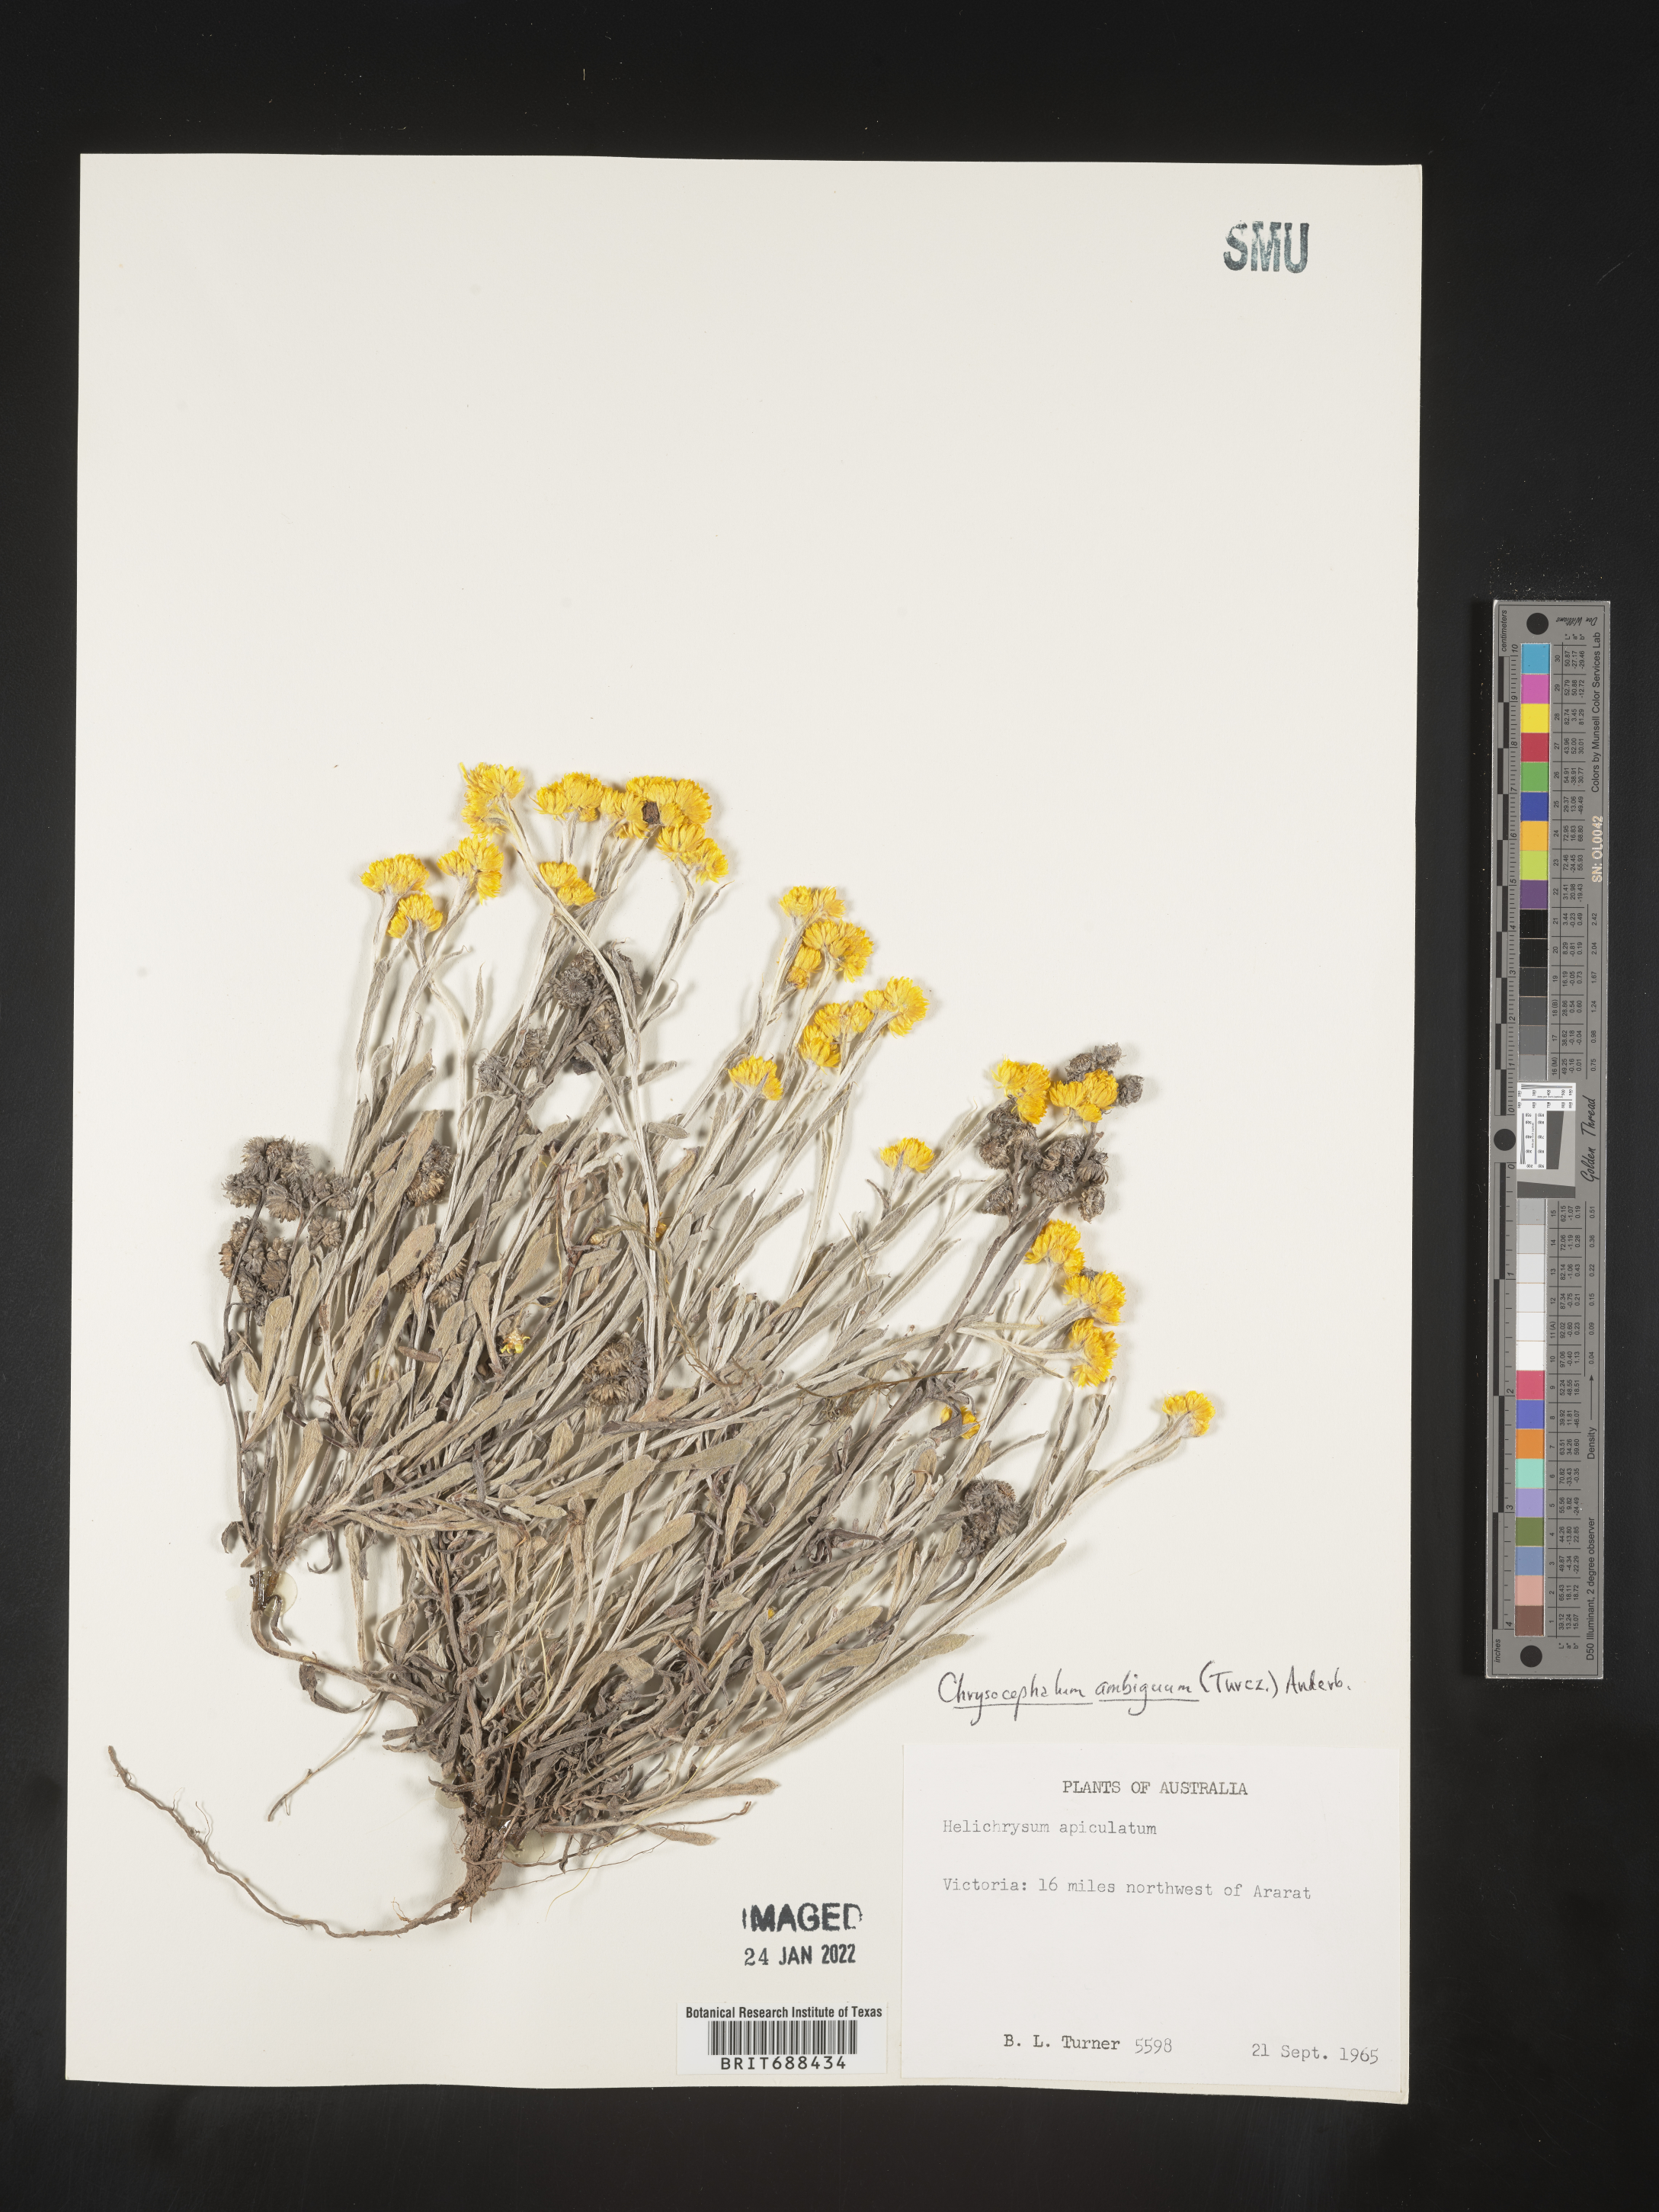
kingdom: Plantae
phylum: Tracheophyta
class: Magnoliopsida
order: Asterales
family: Asteraceae
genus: Chrysocephalum
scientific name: Chrysocephalum
